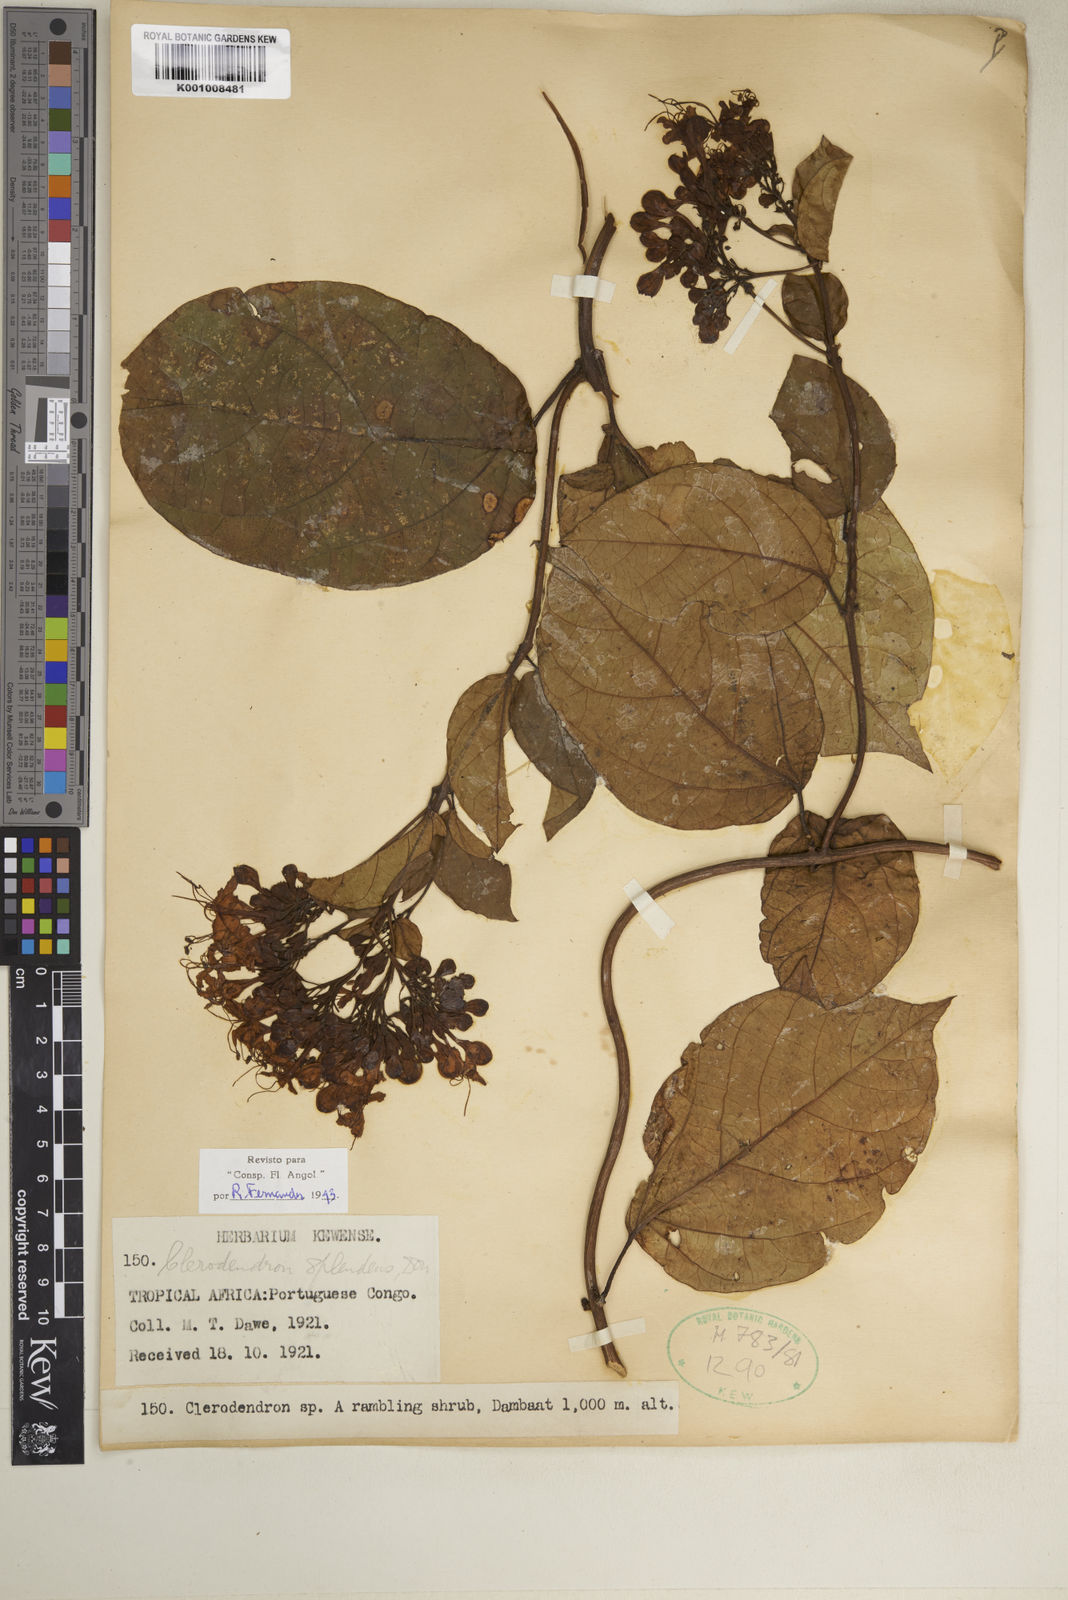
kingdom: Plantae
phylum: Tracheophyta
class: Magnoliopsida
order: Lamiales
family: Lamiaceae
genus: Clerodendrum
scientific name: Clerodendrum splendens
